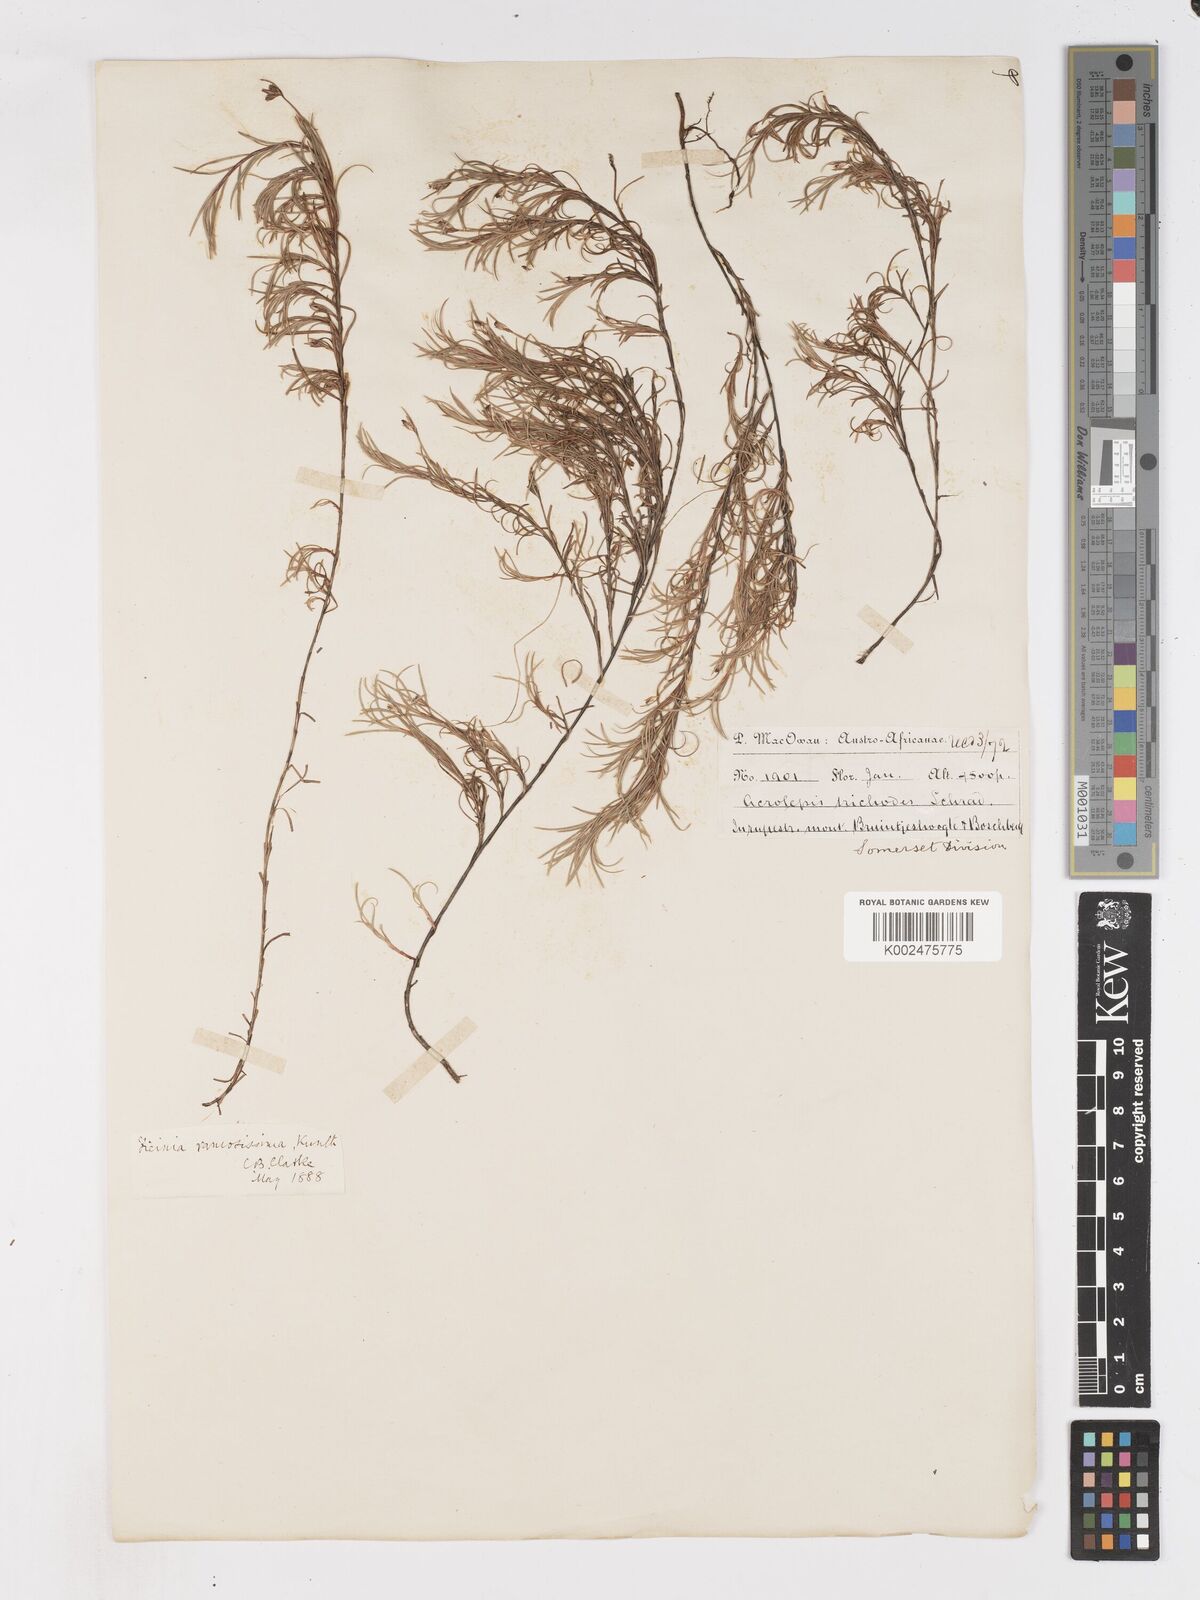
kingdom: Plantae
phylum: Tracheophyta
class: Liliopsida
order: Poales
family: Cyperaceae
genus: Ficinia
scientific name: Ficinia ramosissima
